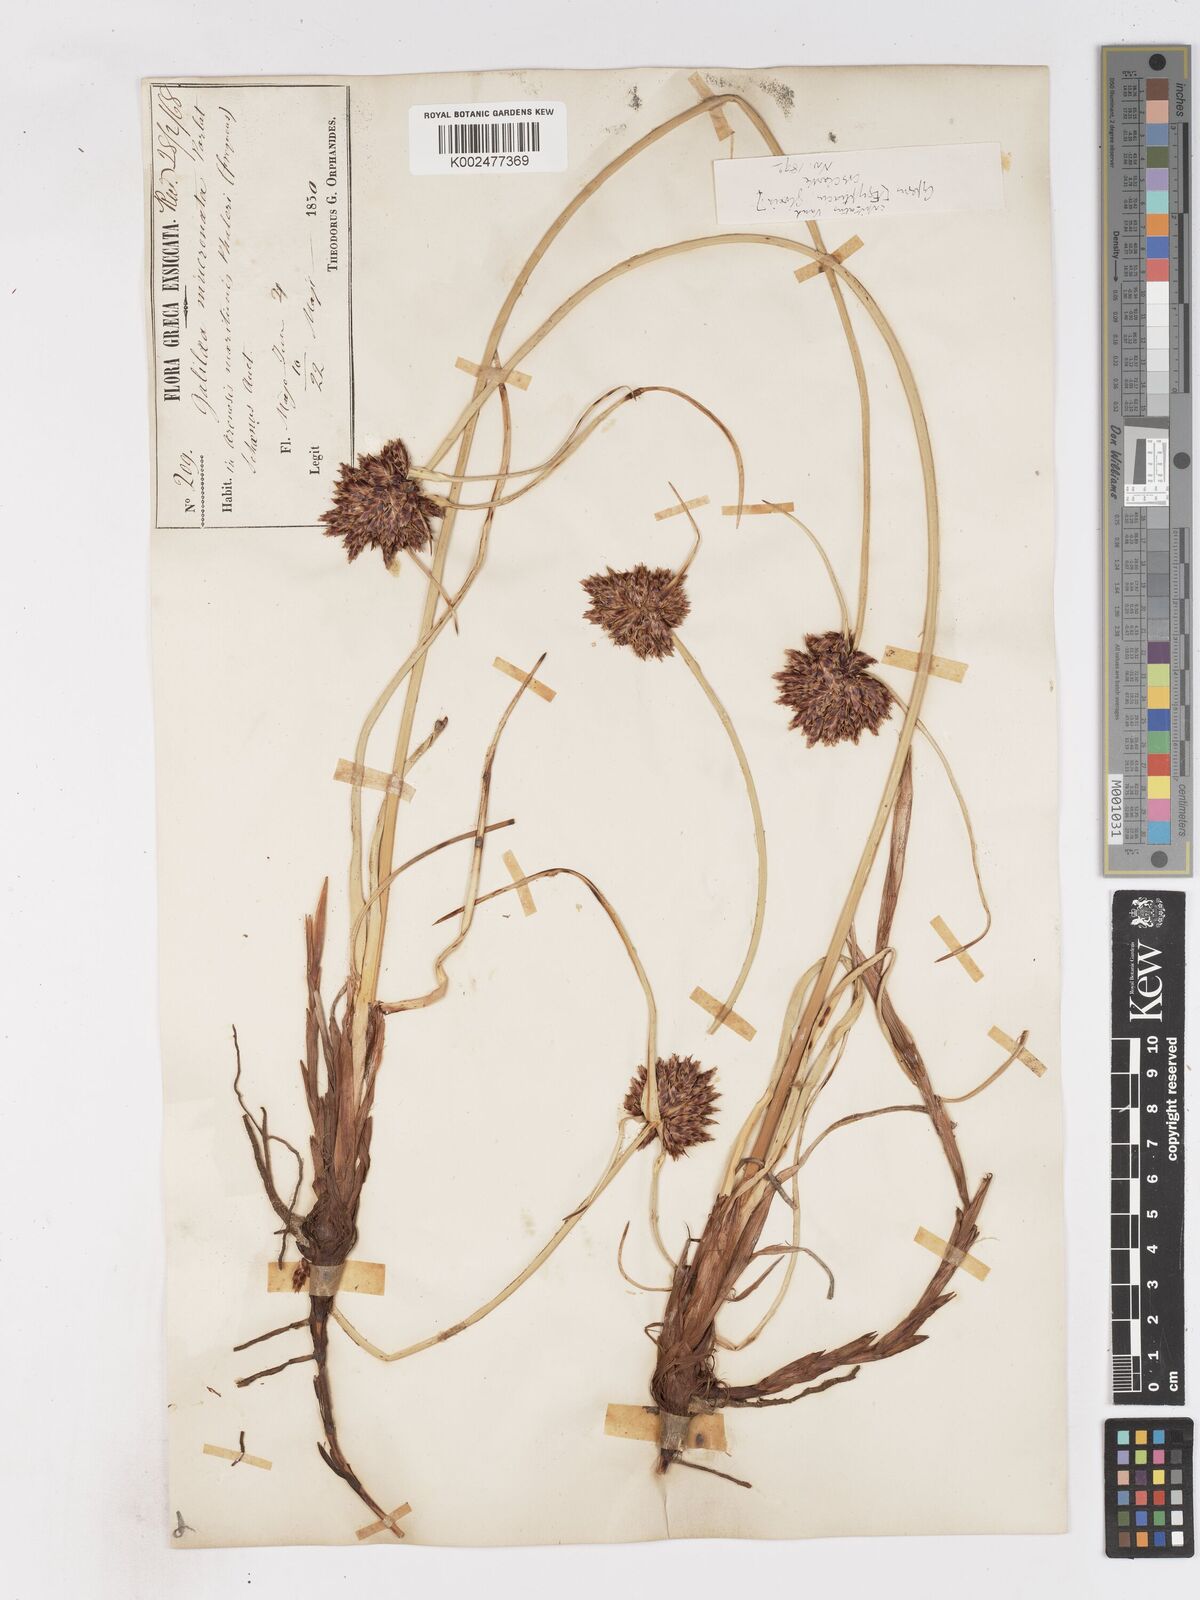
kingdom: Plantae
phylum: Tracheophyta
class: Liliopsida
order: Poales
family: Cyperaceae
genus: Cyperus
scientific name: Cyperus capitatus
